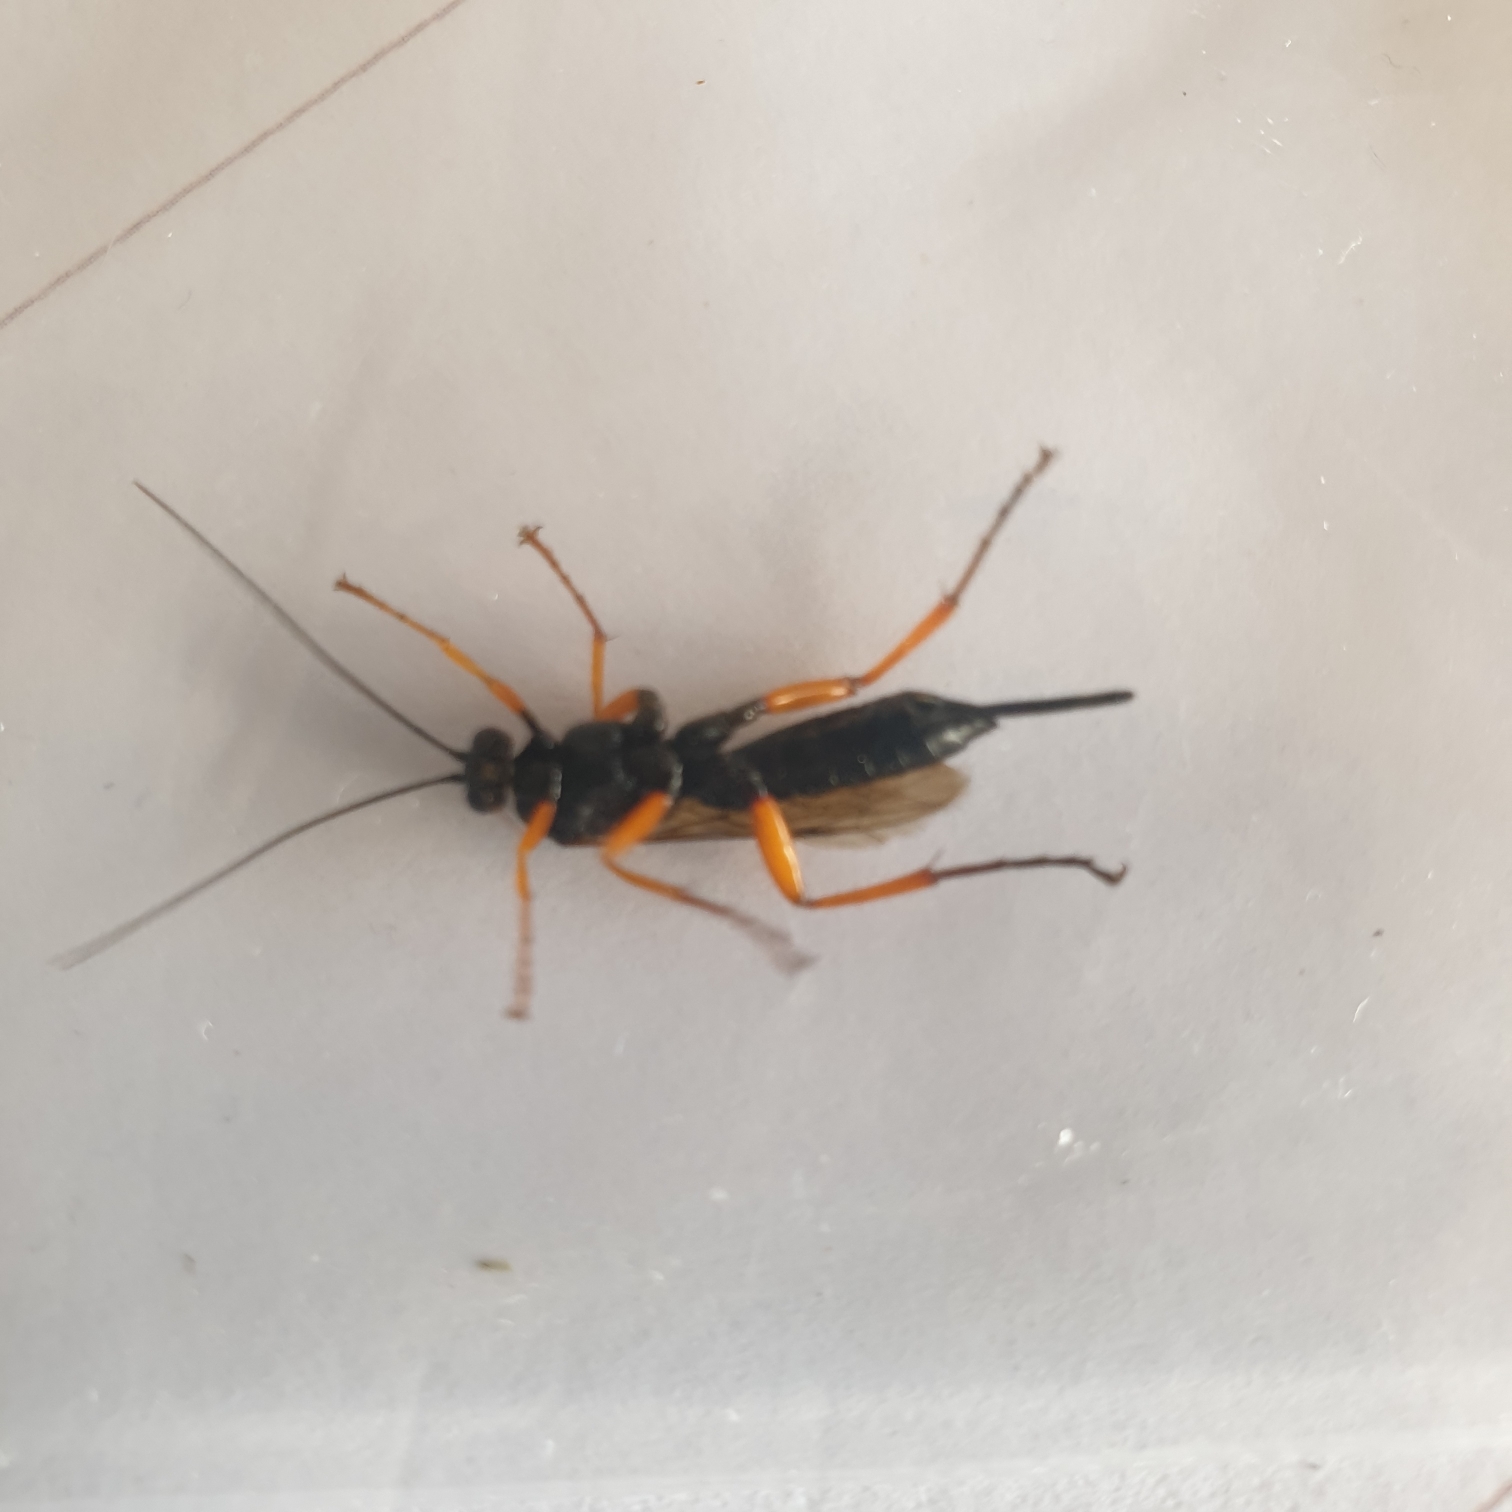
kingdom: Animalia
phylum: Arthropoda
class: Insecta
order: Hymenoptera
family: Ichneumonidae
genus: Pimpla
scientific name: Pimpla rufipes
